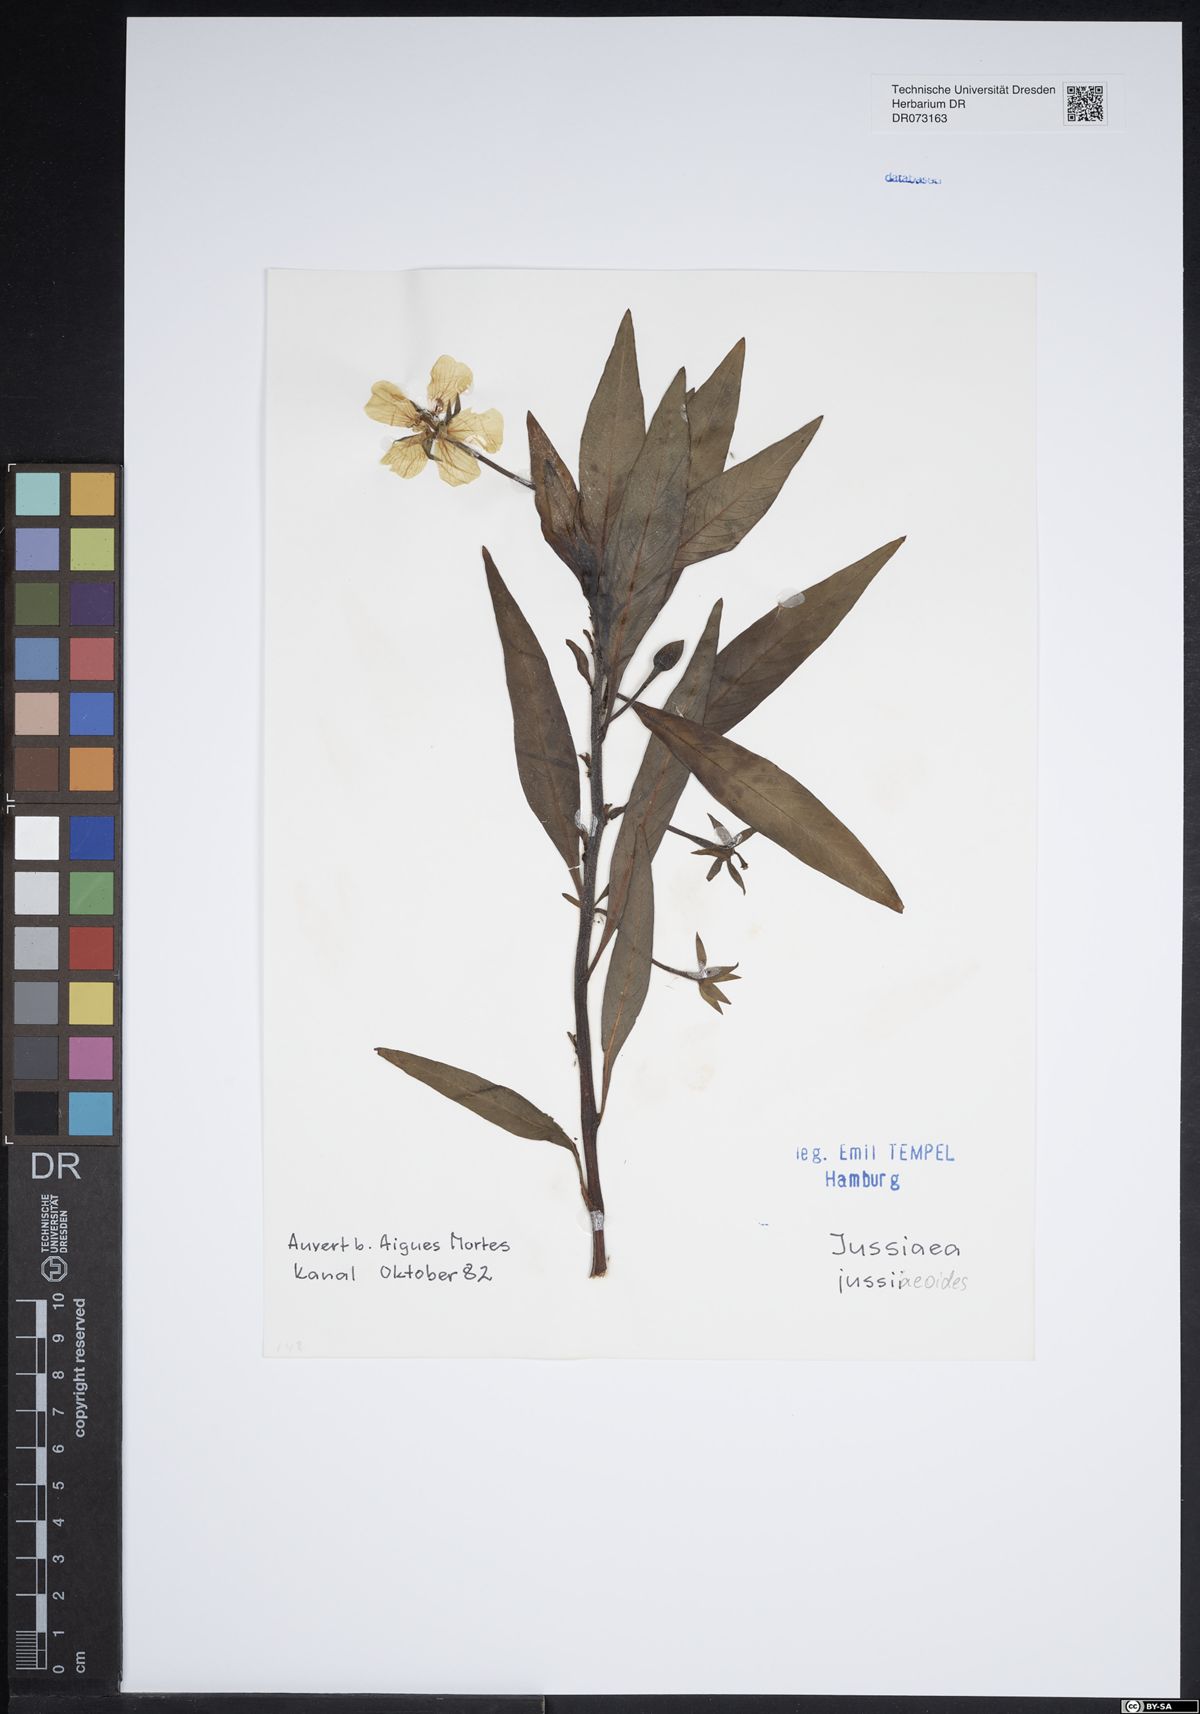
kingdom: Plantae
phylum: Tracheophyta
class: Magnoliopsida
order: Myrtales
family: Onagraceae
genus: Ludwigia
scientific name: Ludwigia jussiaeoides
